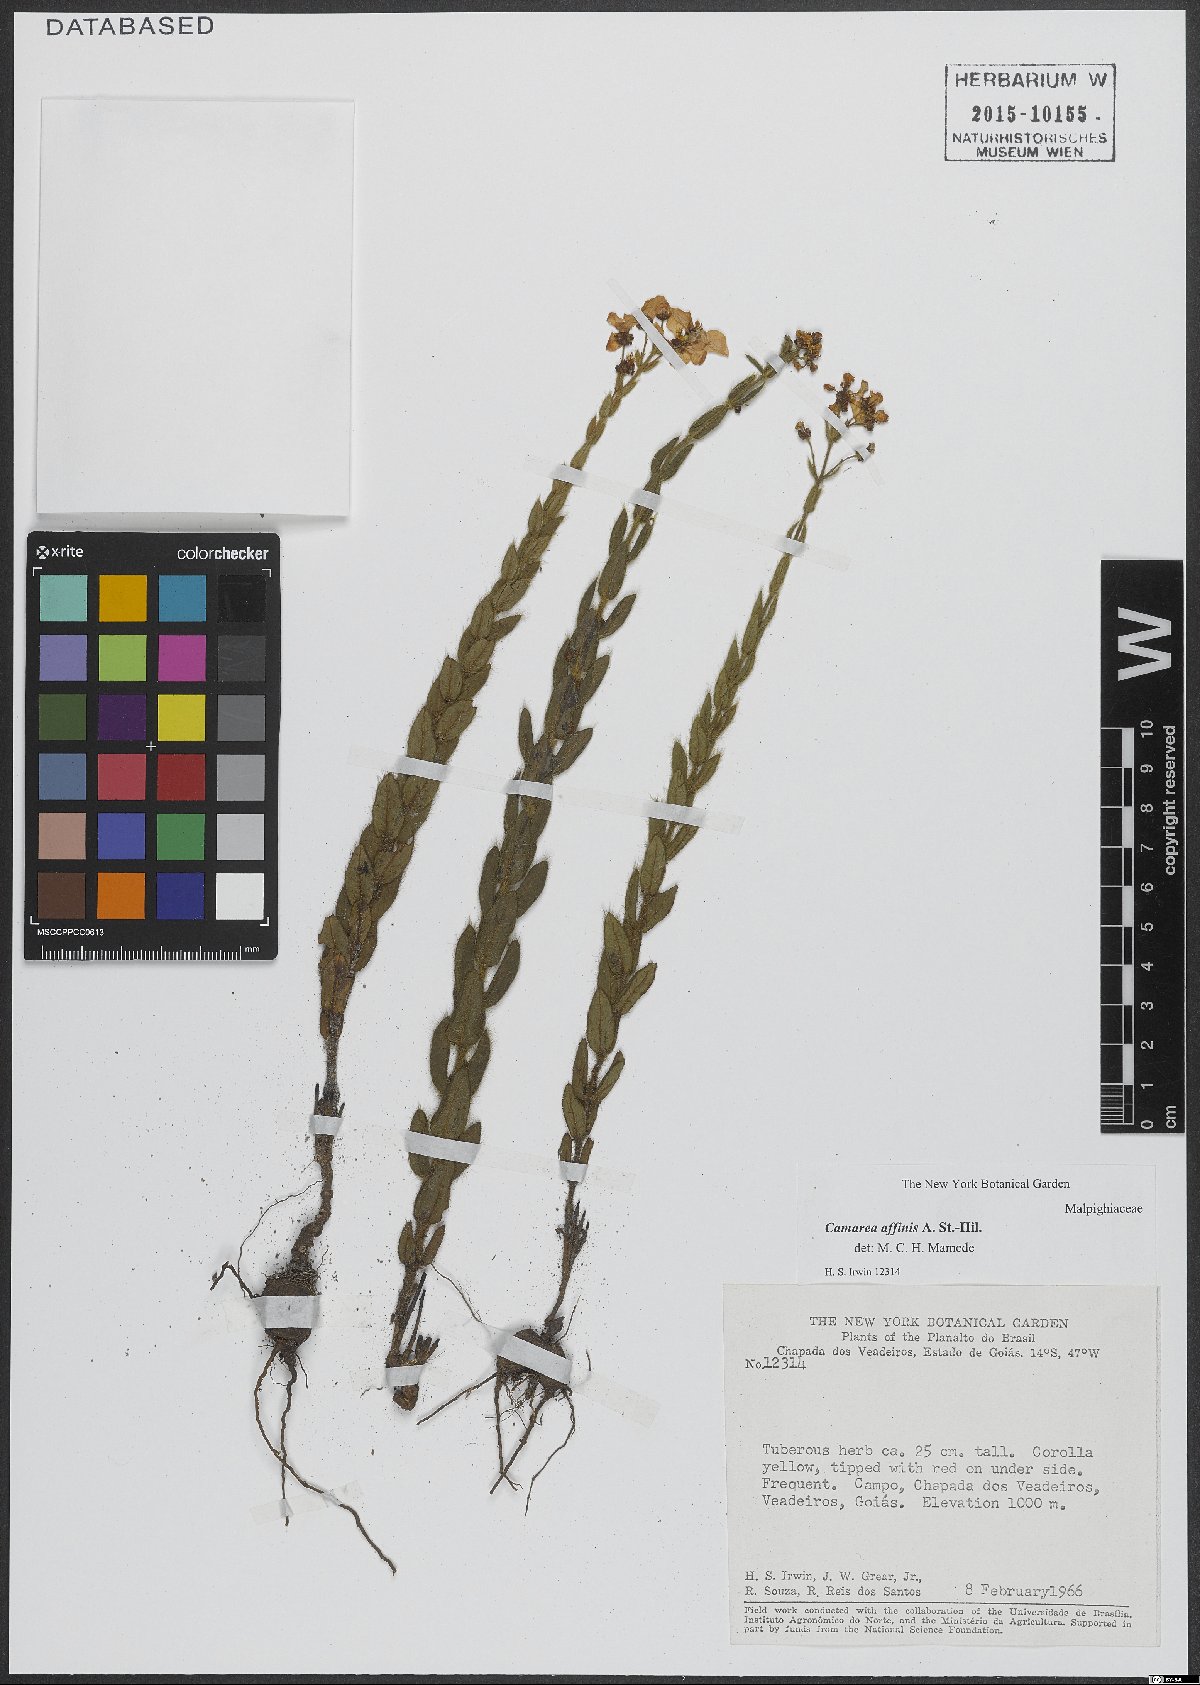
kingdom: Plantae
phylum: Tracheophyta
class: Magnoliopsida
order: Malpighiales
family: Malpighiaceae
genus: Camarea
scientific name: Camarea affinis
